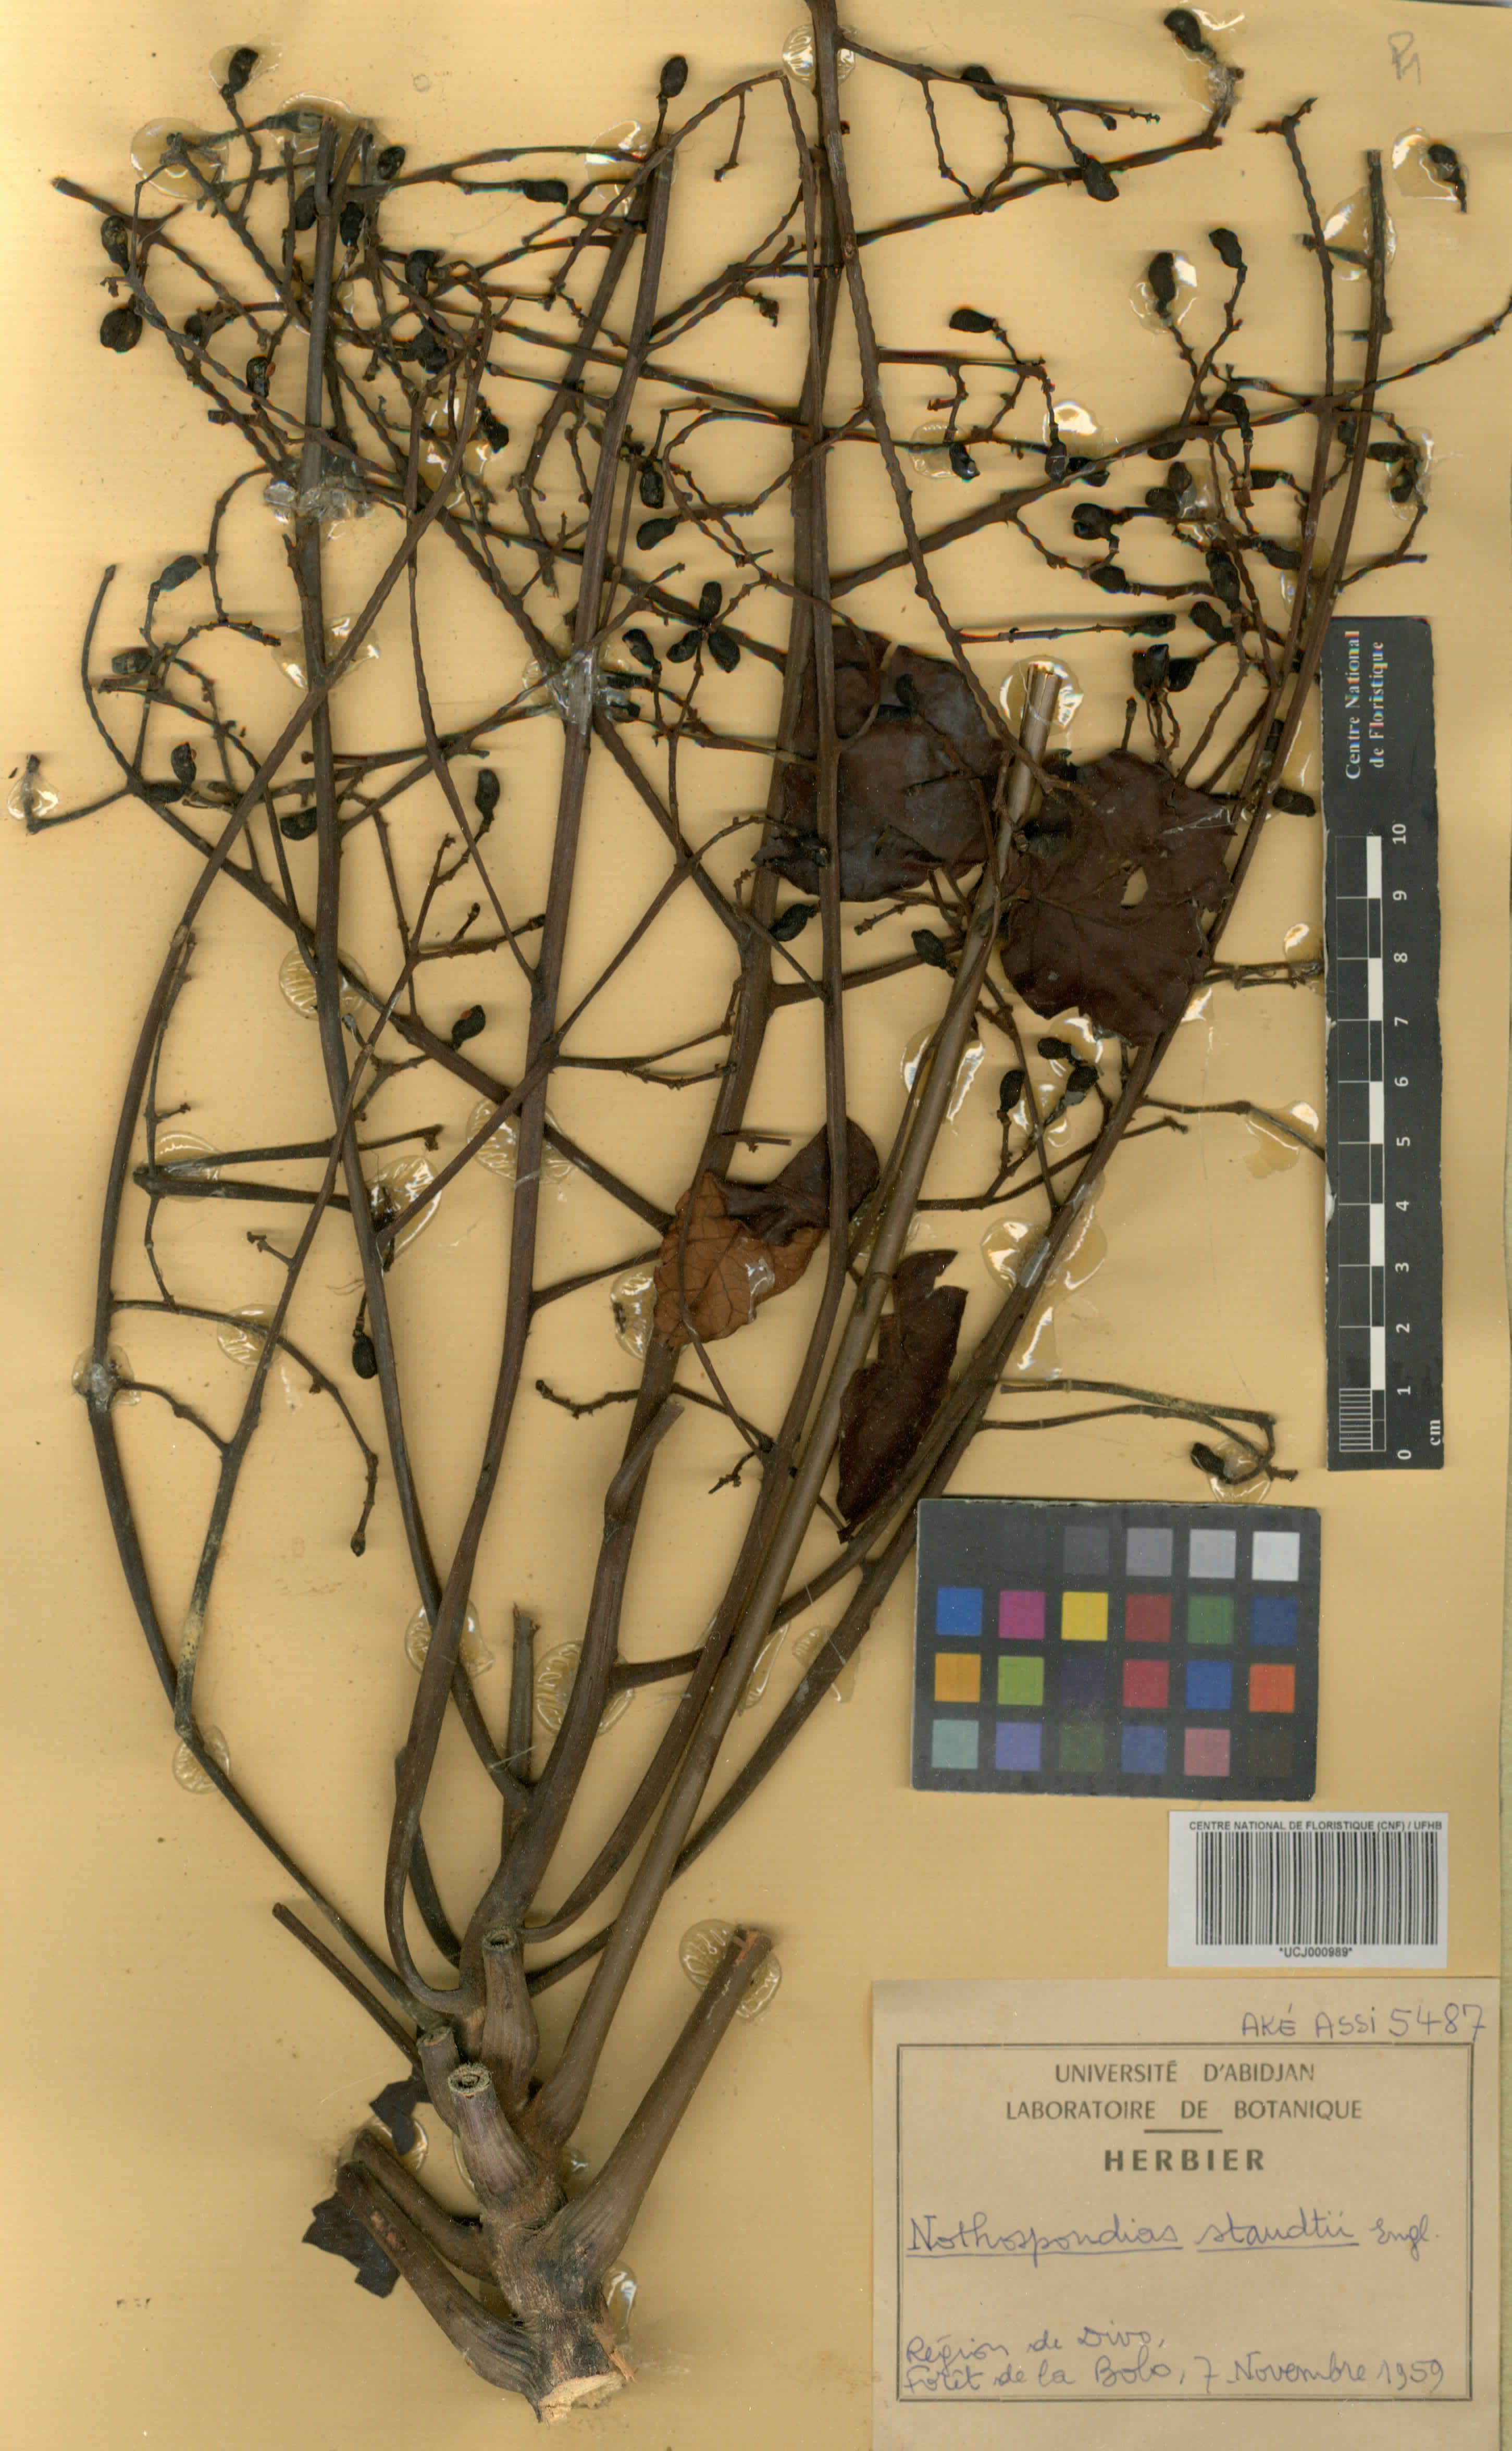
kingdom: Plantae
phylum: Tracheophyta
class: Magnoliopsida
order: Sapindales
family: Simaroubaceae
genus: Nothospondias
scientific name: Nothospondias staudtii
